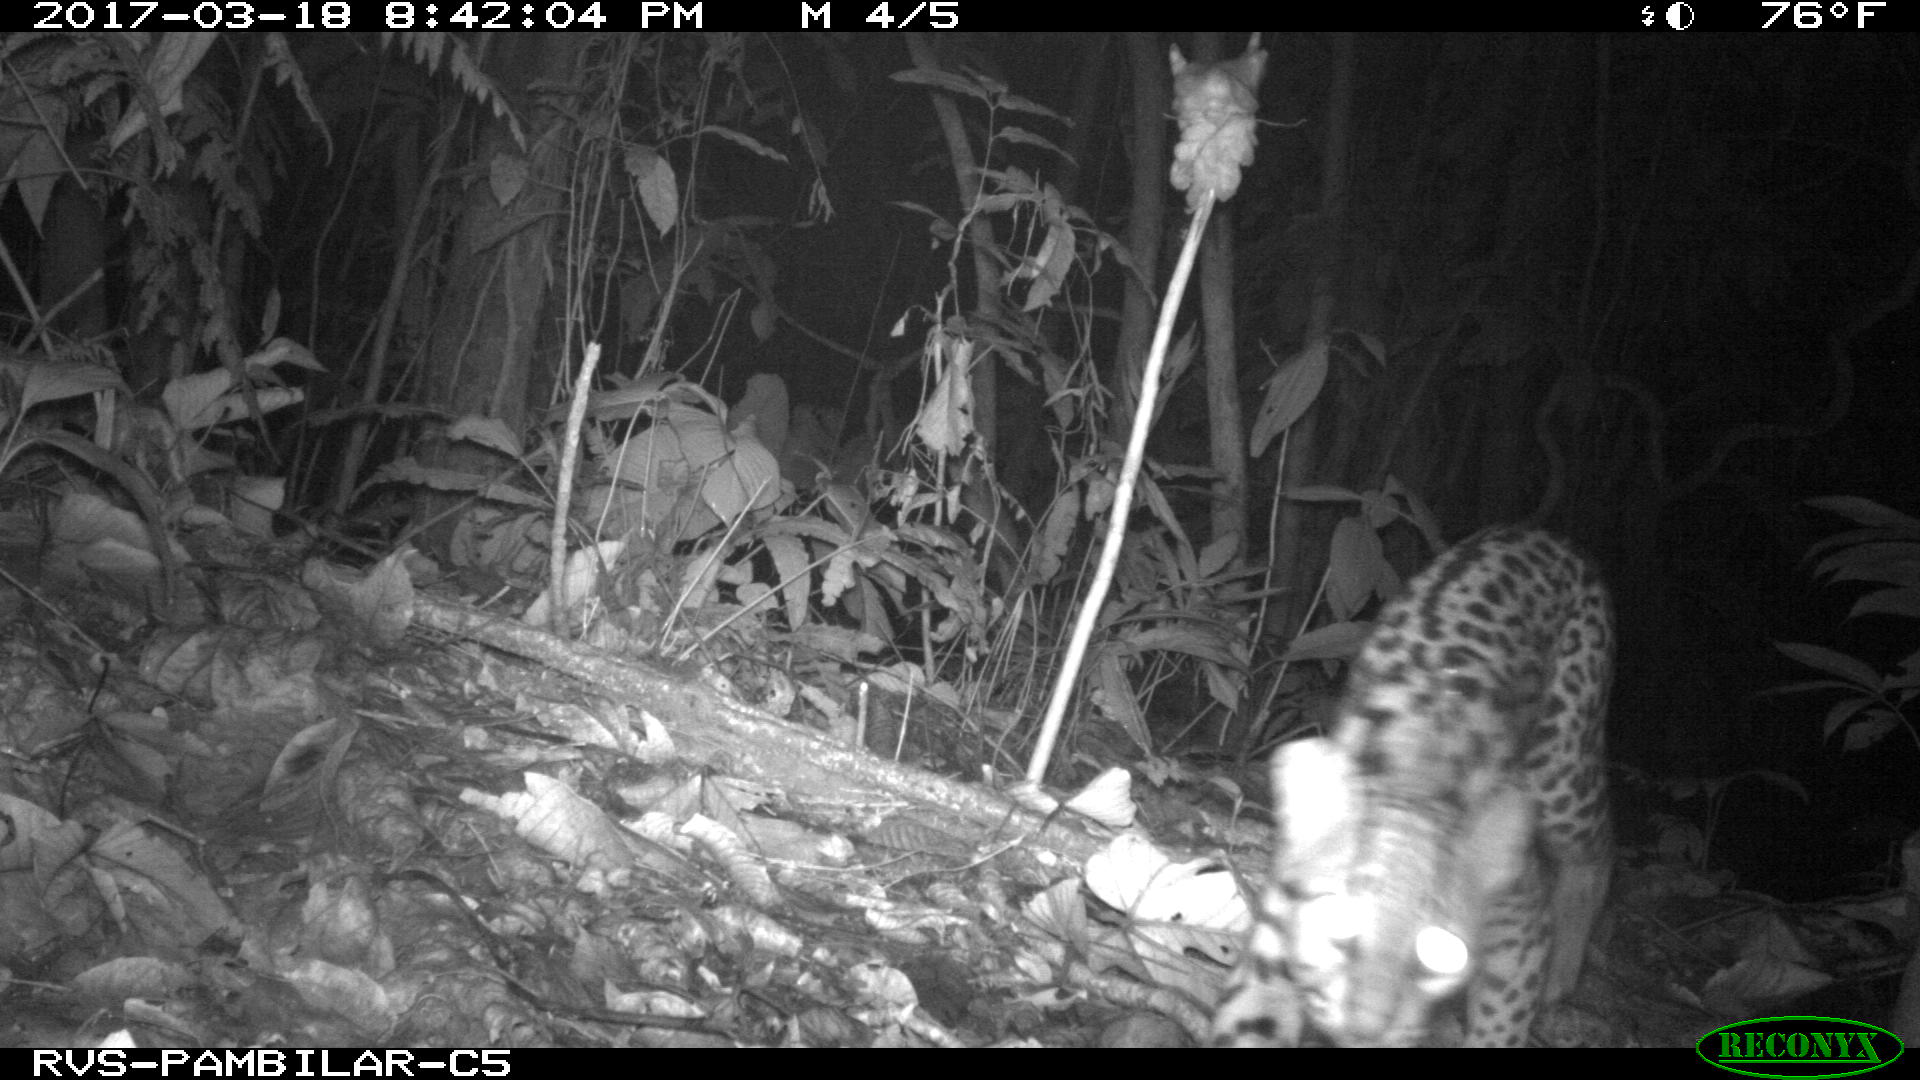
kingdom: Animalia
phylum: Chordata
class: Mammalia
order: Carnivora
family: Felidae
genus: Leopardus
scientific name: Leopardus pardalis
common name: Ocelot
